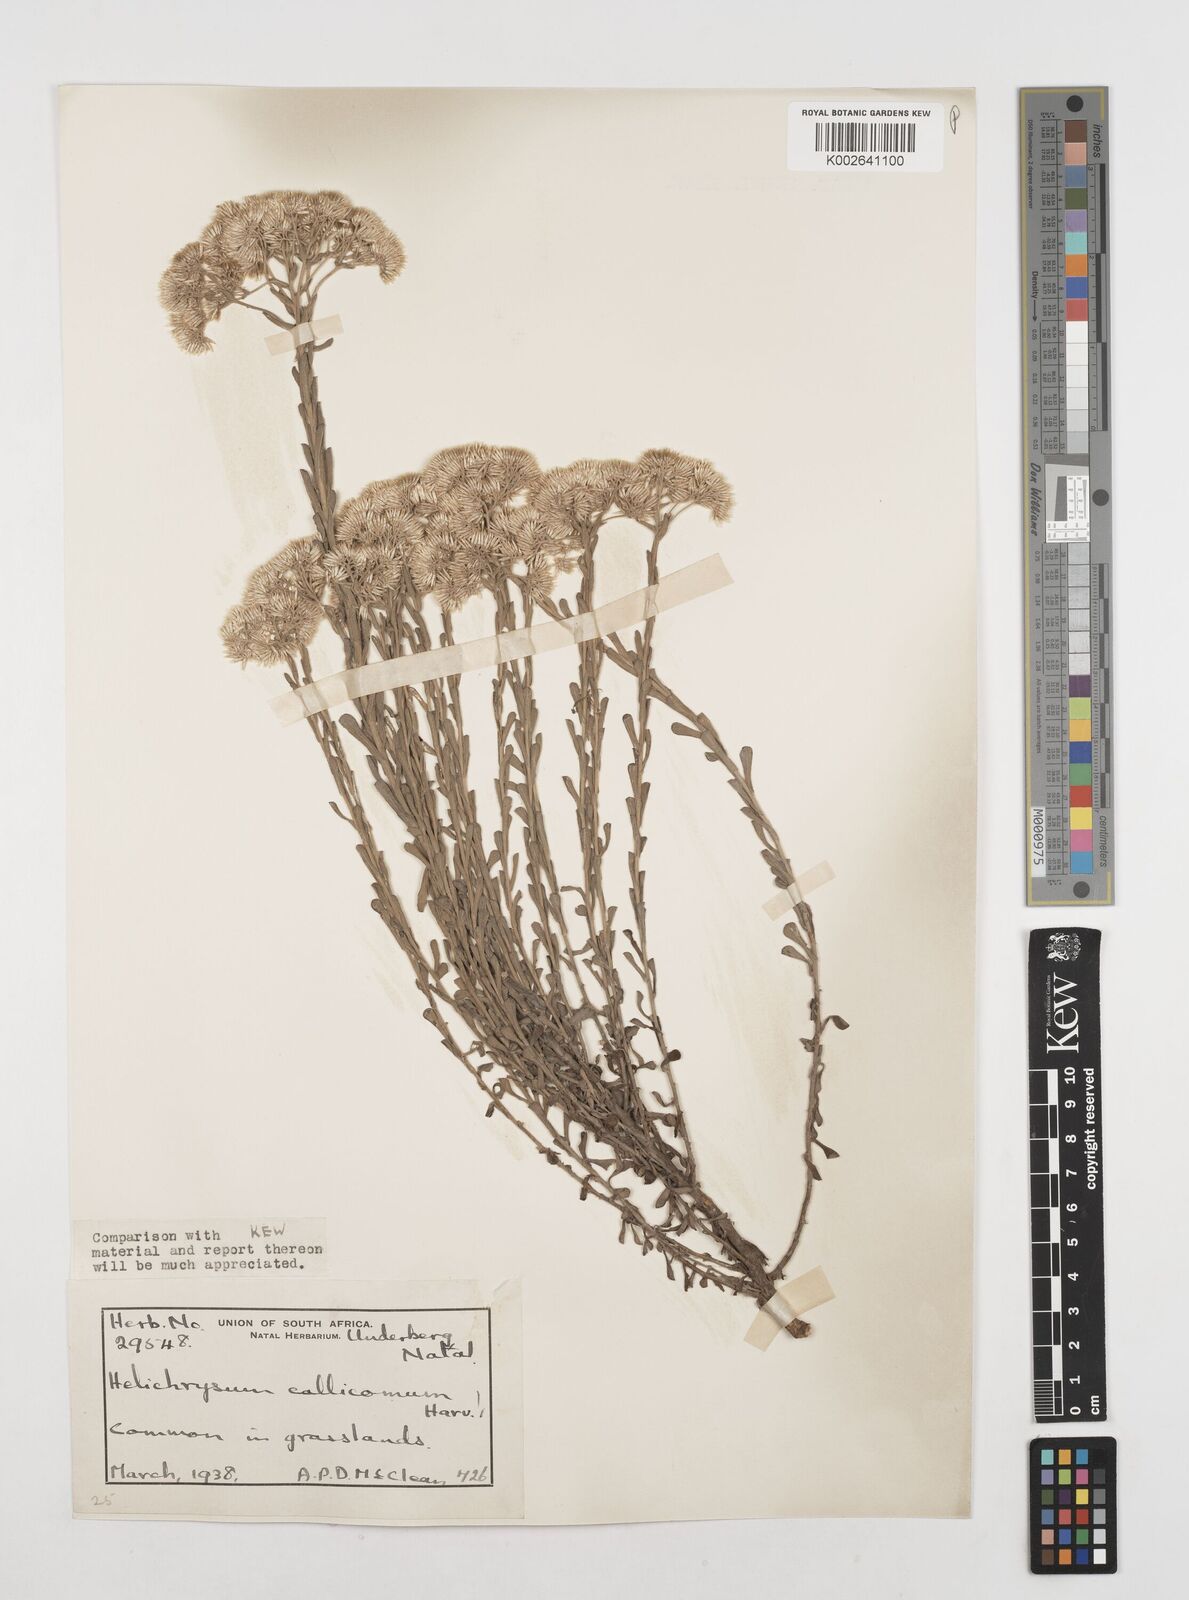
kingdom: Plantae
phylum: Tracheophyta
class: Magnoliopsida
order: Asterales
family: Asteraceae
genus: Helichrysum
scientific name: Helichrysum callicomum
